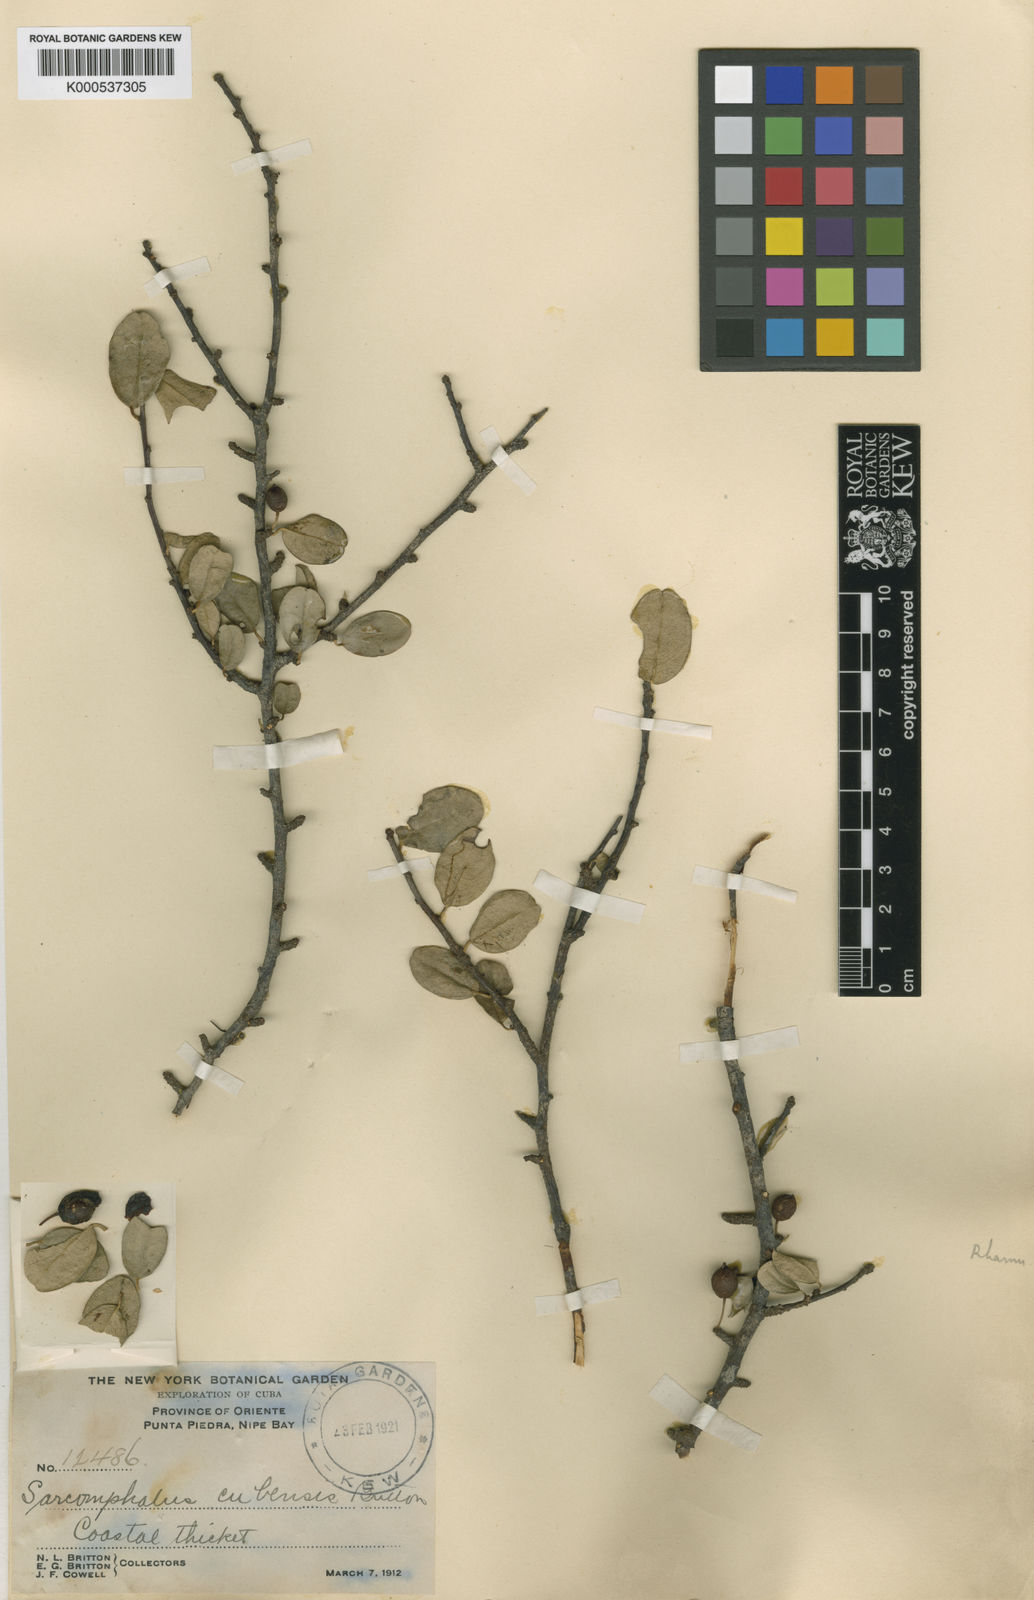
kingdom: Plantae
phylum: Tracheophyta
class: Magnoliopsida
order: Rosales
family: Rhamnaceae
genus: Doerpfeldia
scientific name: Doerpfeldia cubensis
